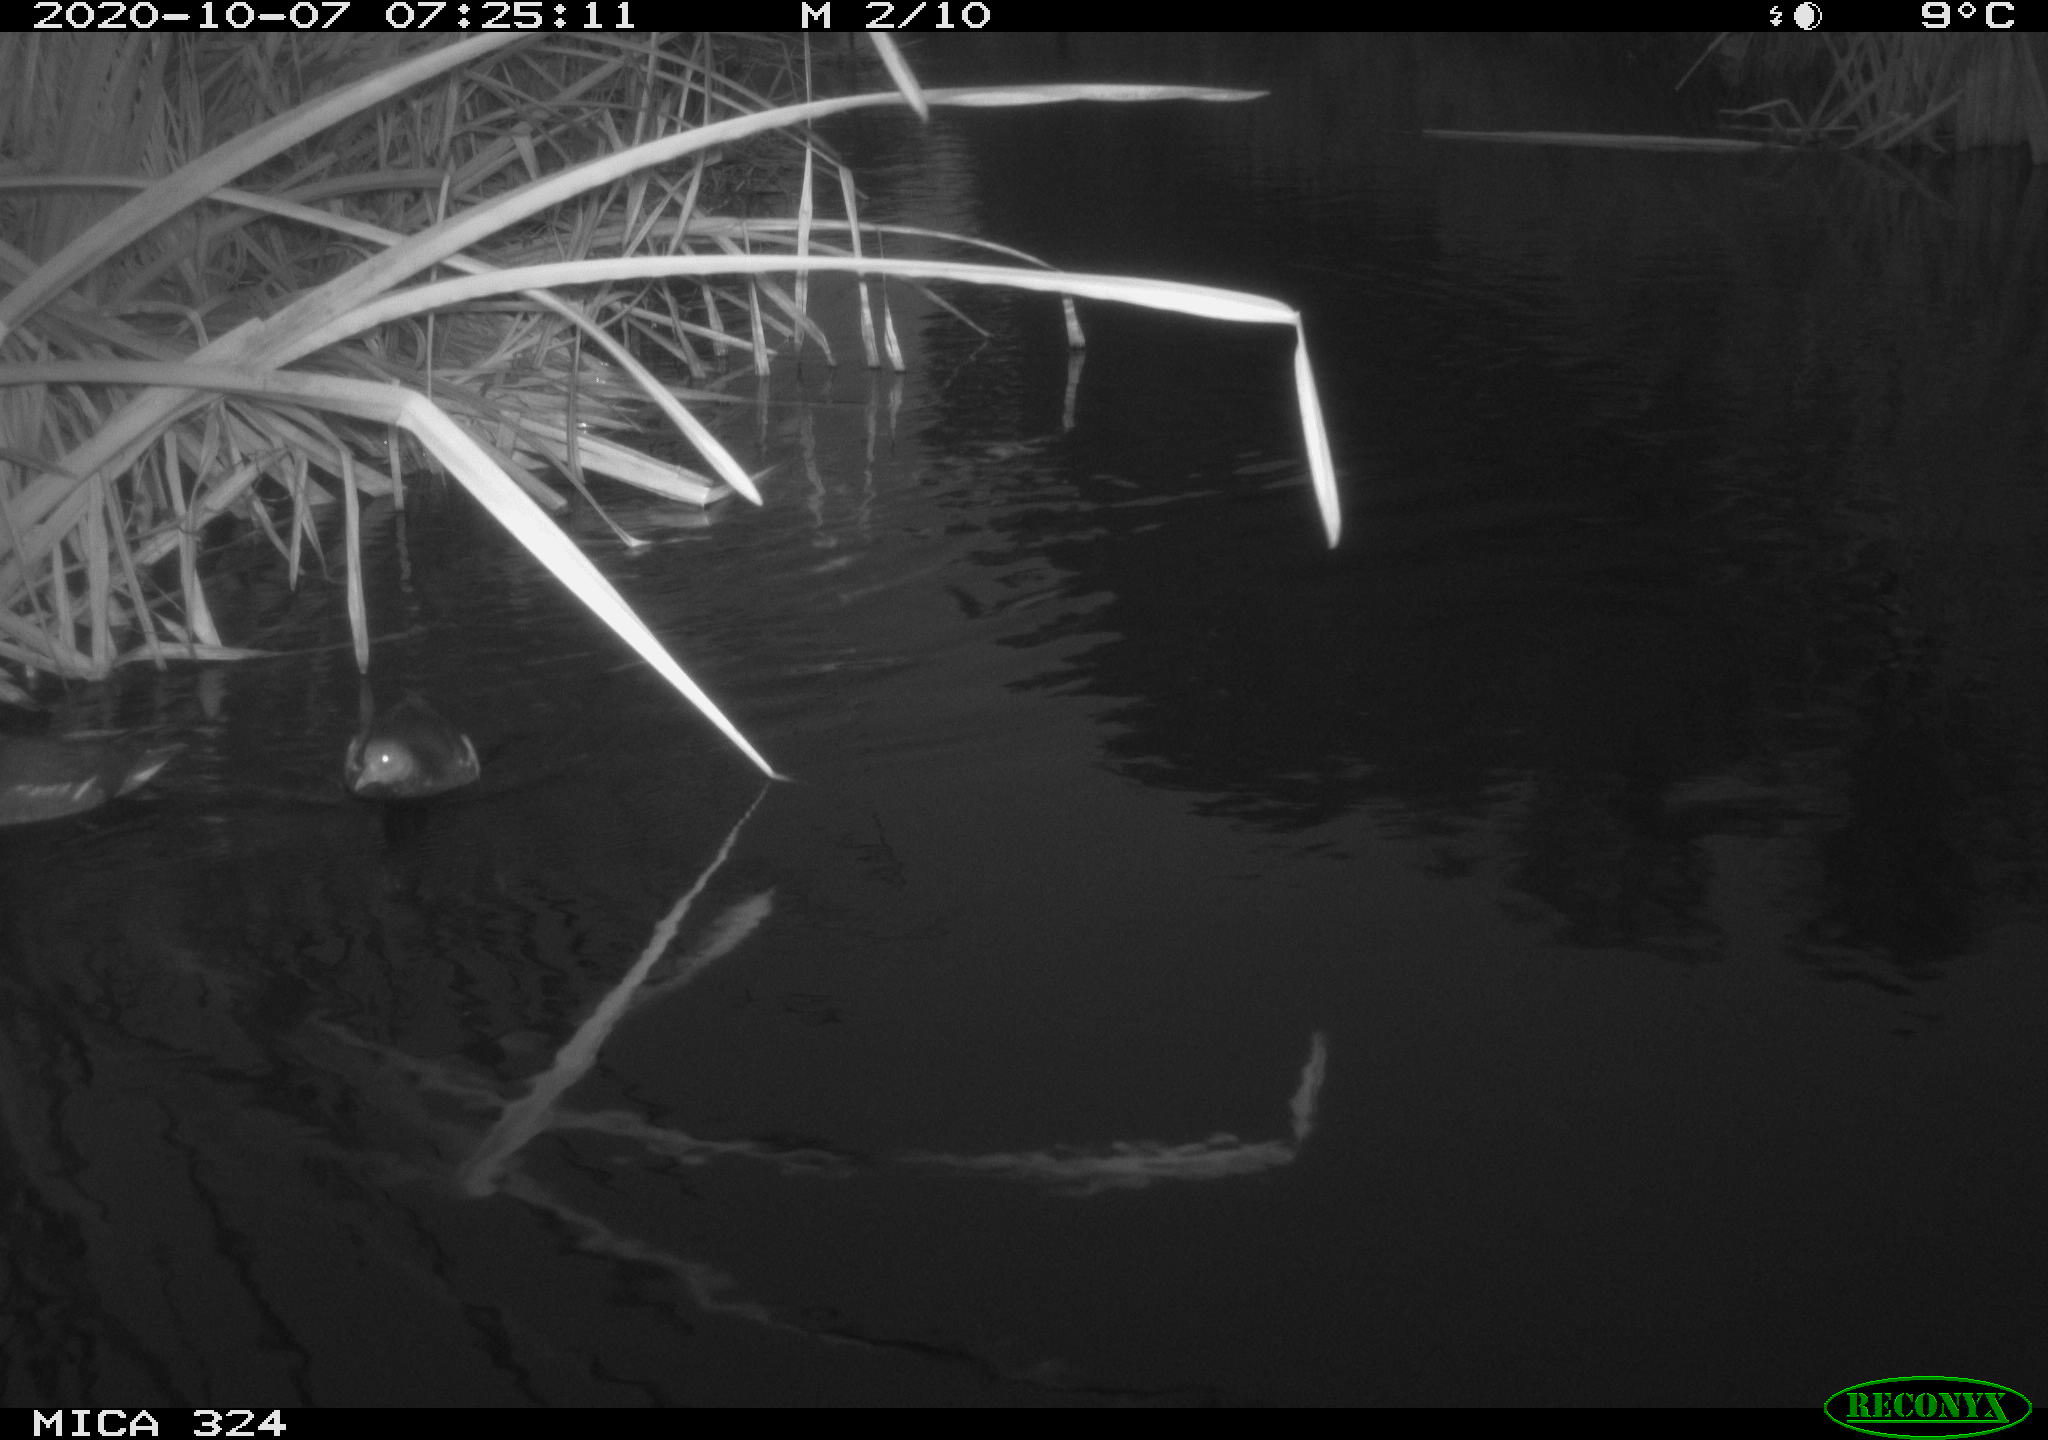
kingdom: Animalia
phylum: Chordata
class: Aves
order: Gruiformes
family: Rallidae
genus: Gallinula
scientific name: Gallinula chloropus
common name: Common moorhen
